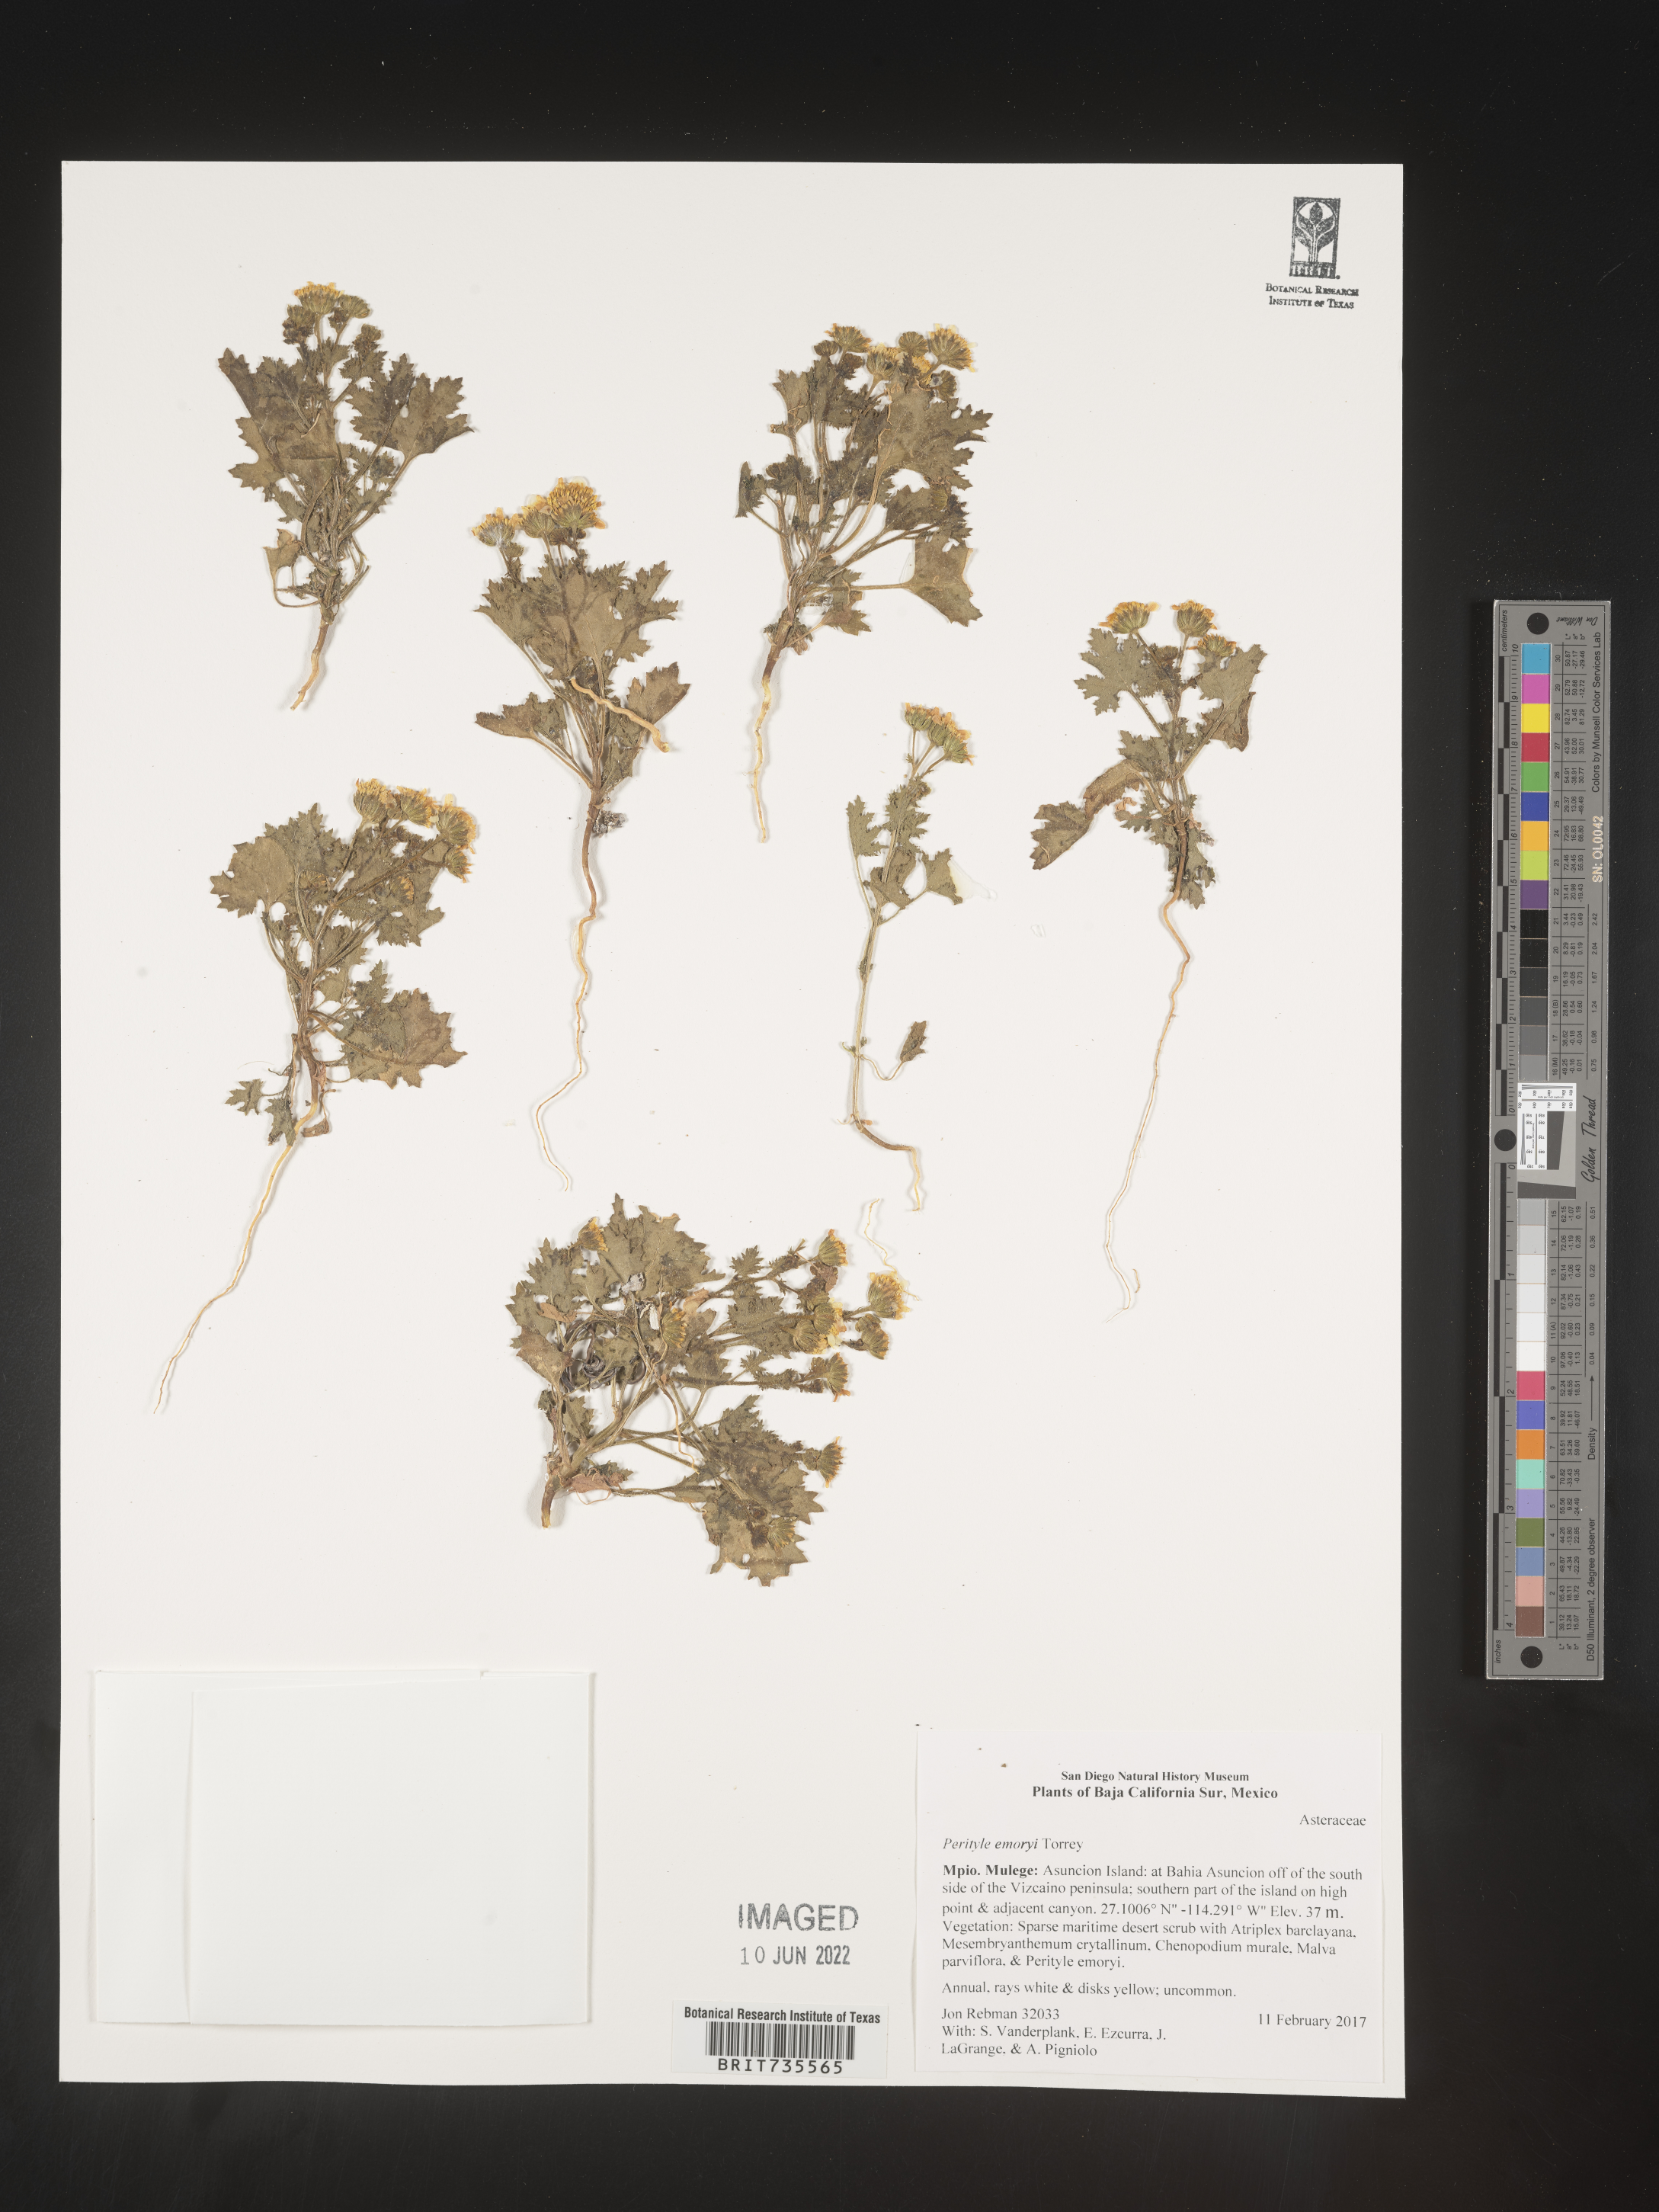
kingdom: Plantae
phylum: Tracheophyta
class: Magnoliopsida
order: Asterales
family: Asteraceae
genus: Perityle
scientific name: Perityle
